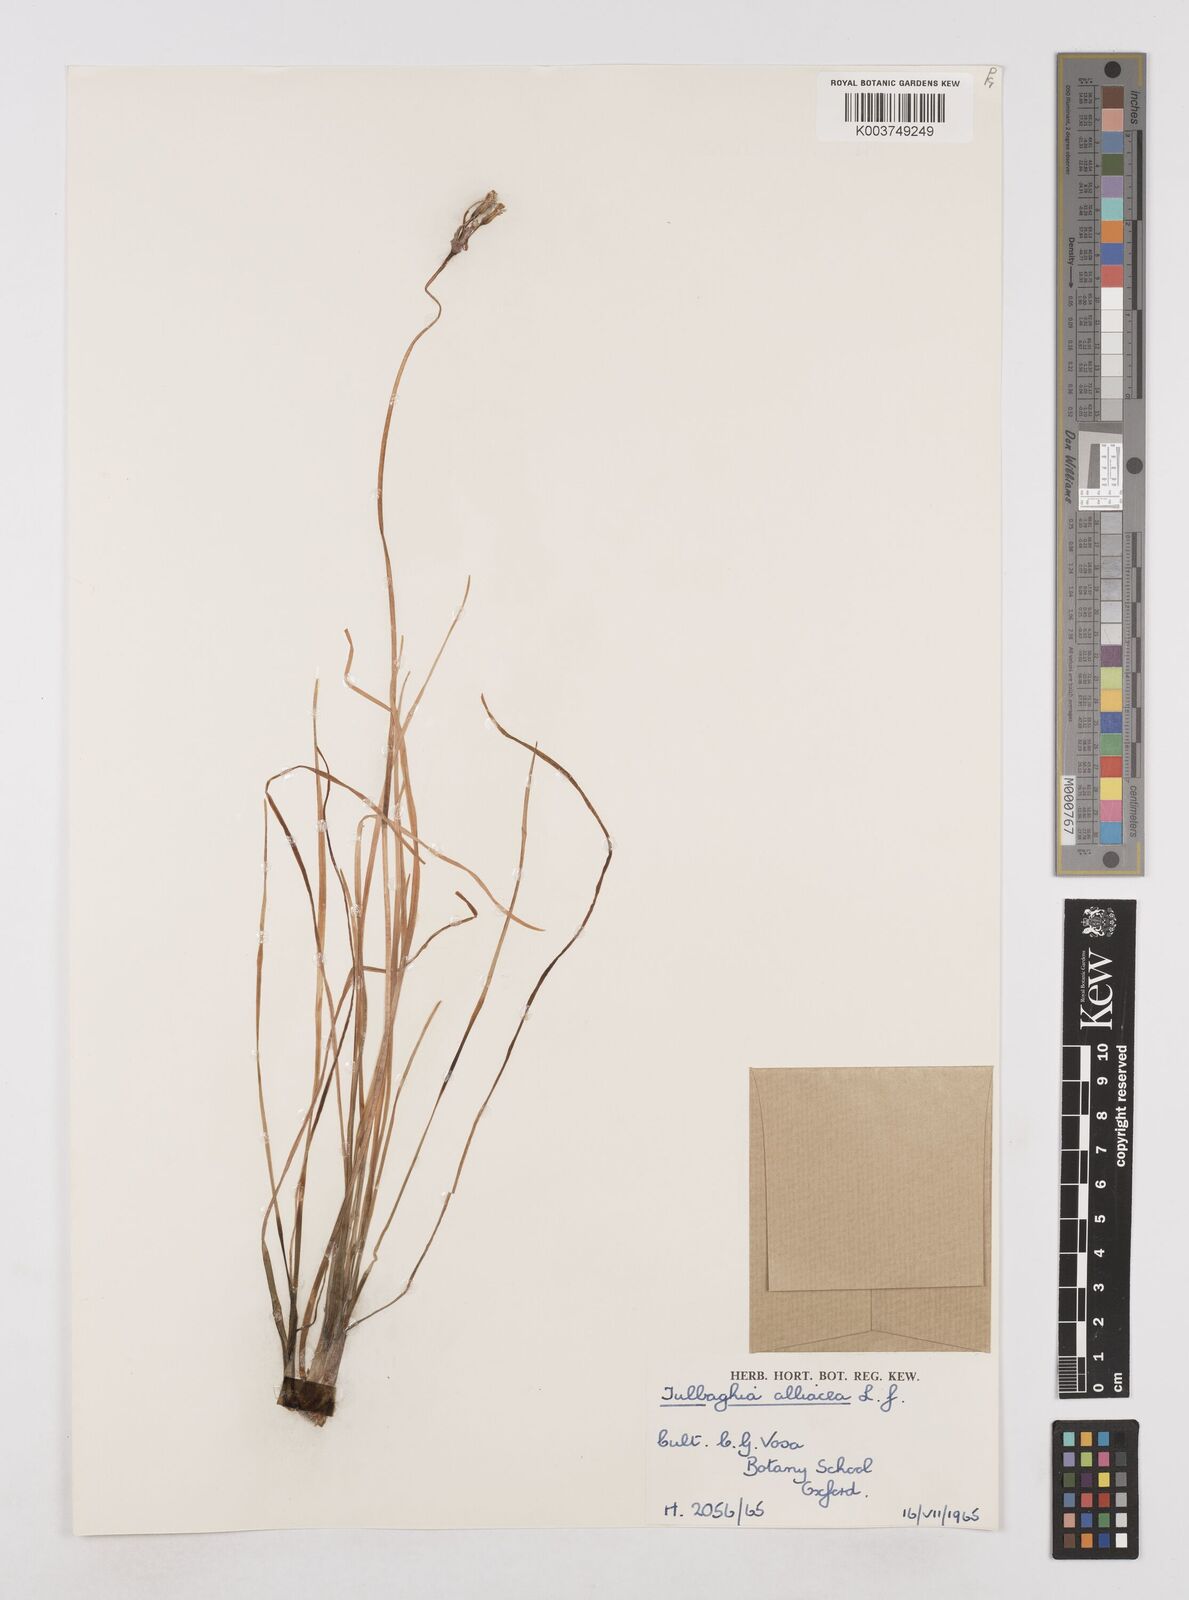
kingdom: Plantae
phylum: Tracheophyta
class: Liliopsida
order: Asparagales
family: Amaryllidaceae
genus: Tulbaghia
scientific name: Tulbaghia alliacea
